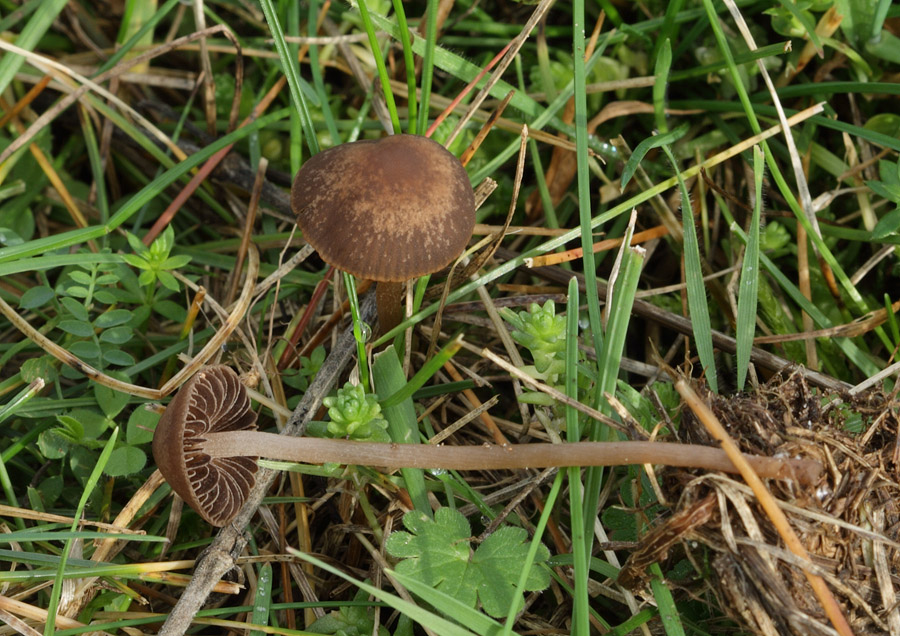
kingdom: Fungi
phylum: Basidiomycota
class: Agaricomycetes
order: Agaricales
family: Bolbitiaceae
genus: Panaeolina
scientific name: Panaeolina foenisecii
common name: høslætsvamp
